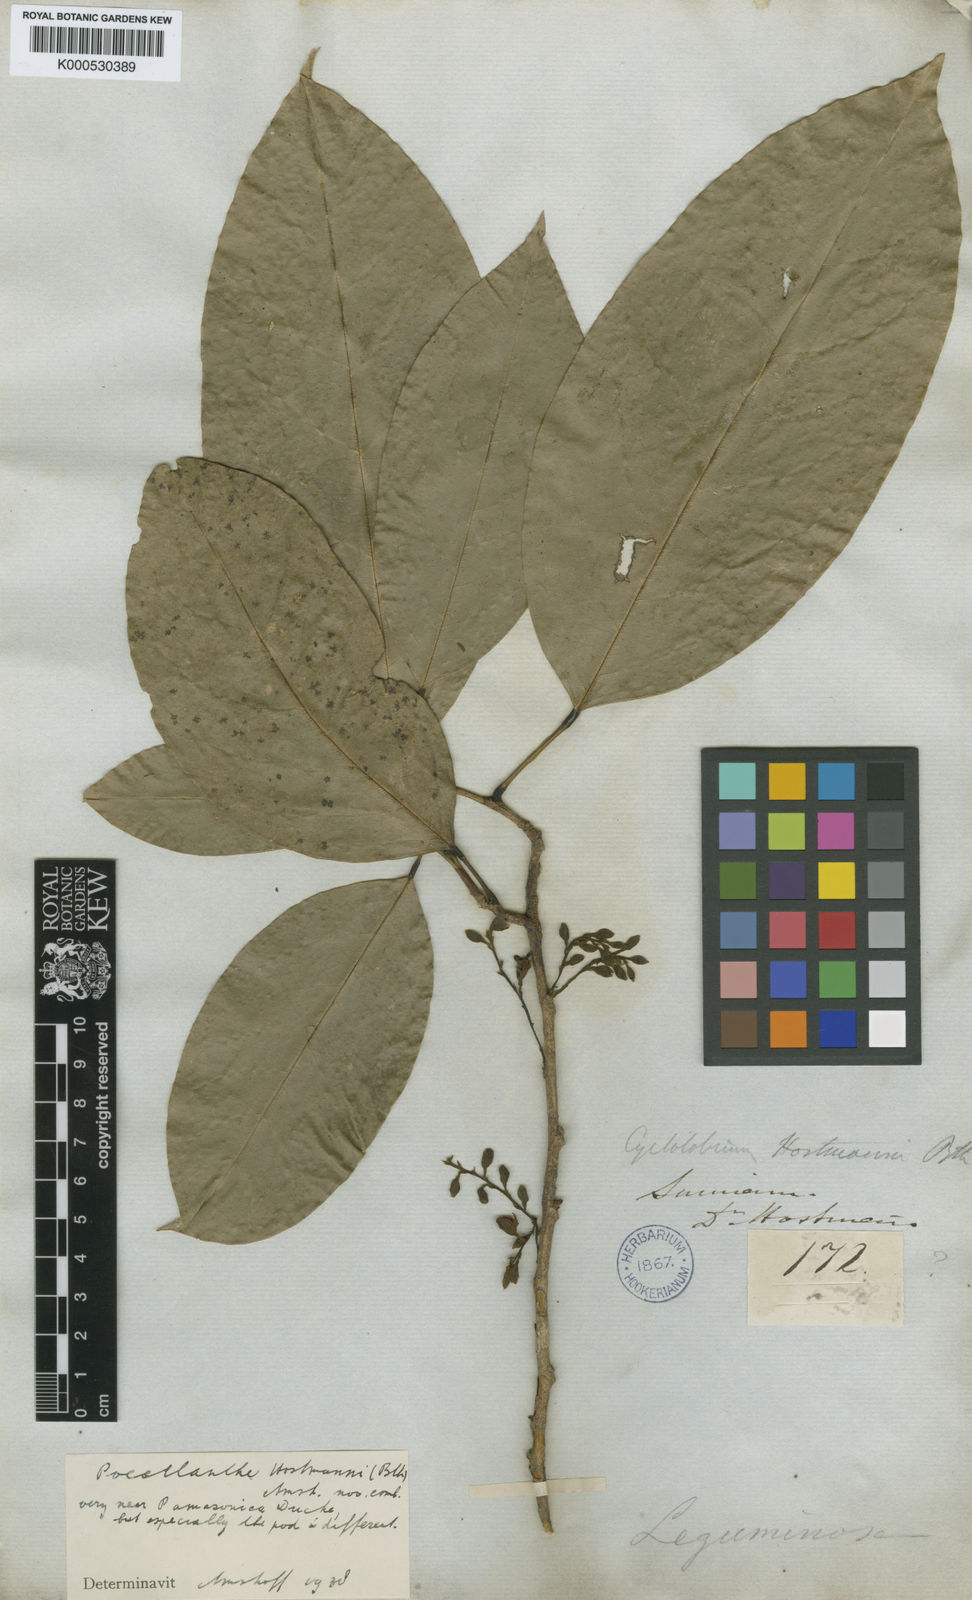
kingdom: Plantae
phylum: Tracheophyta
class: Magnoliopsida
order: Fabales
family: Fabaceae
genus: Limadendron
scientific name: Limadendron hostmannii
